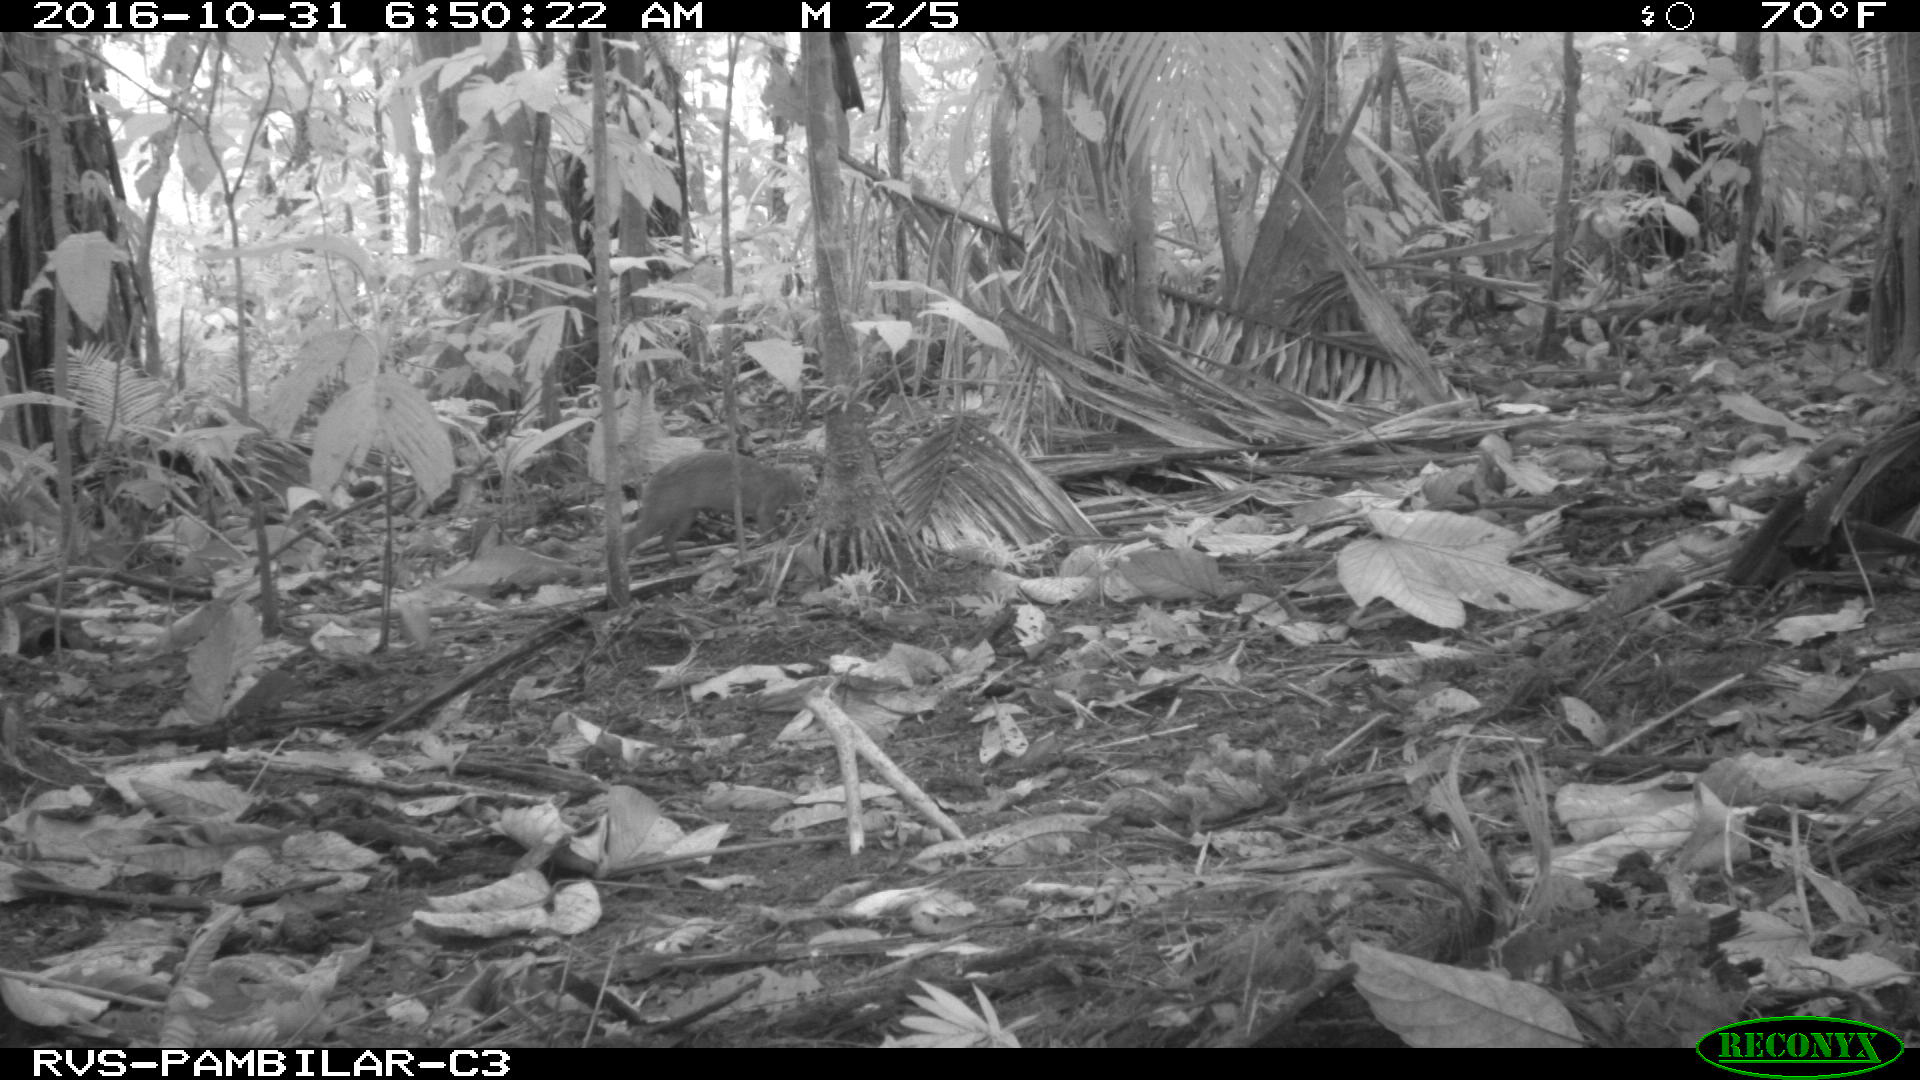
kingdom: Animalia
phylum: Chordata
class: Mammalia
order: Rodentia
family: Dasyproctidae
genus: Dasyprocta
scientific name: Dasyprocta punctata
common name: Central american agouti
